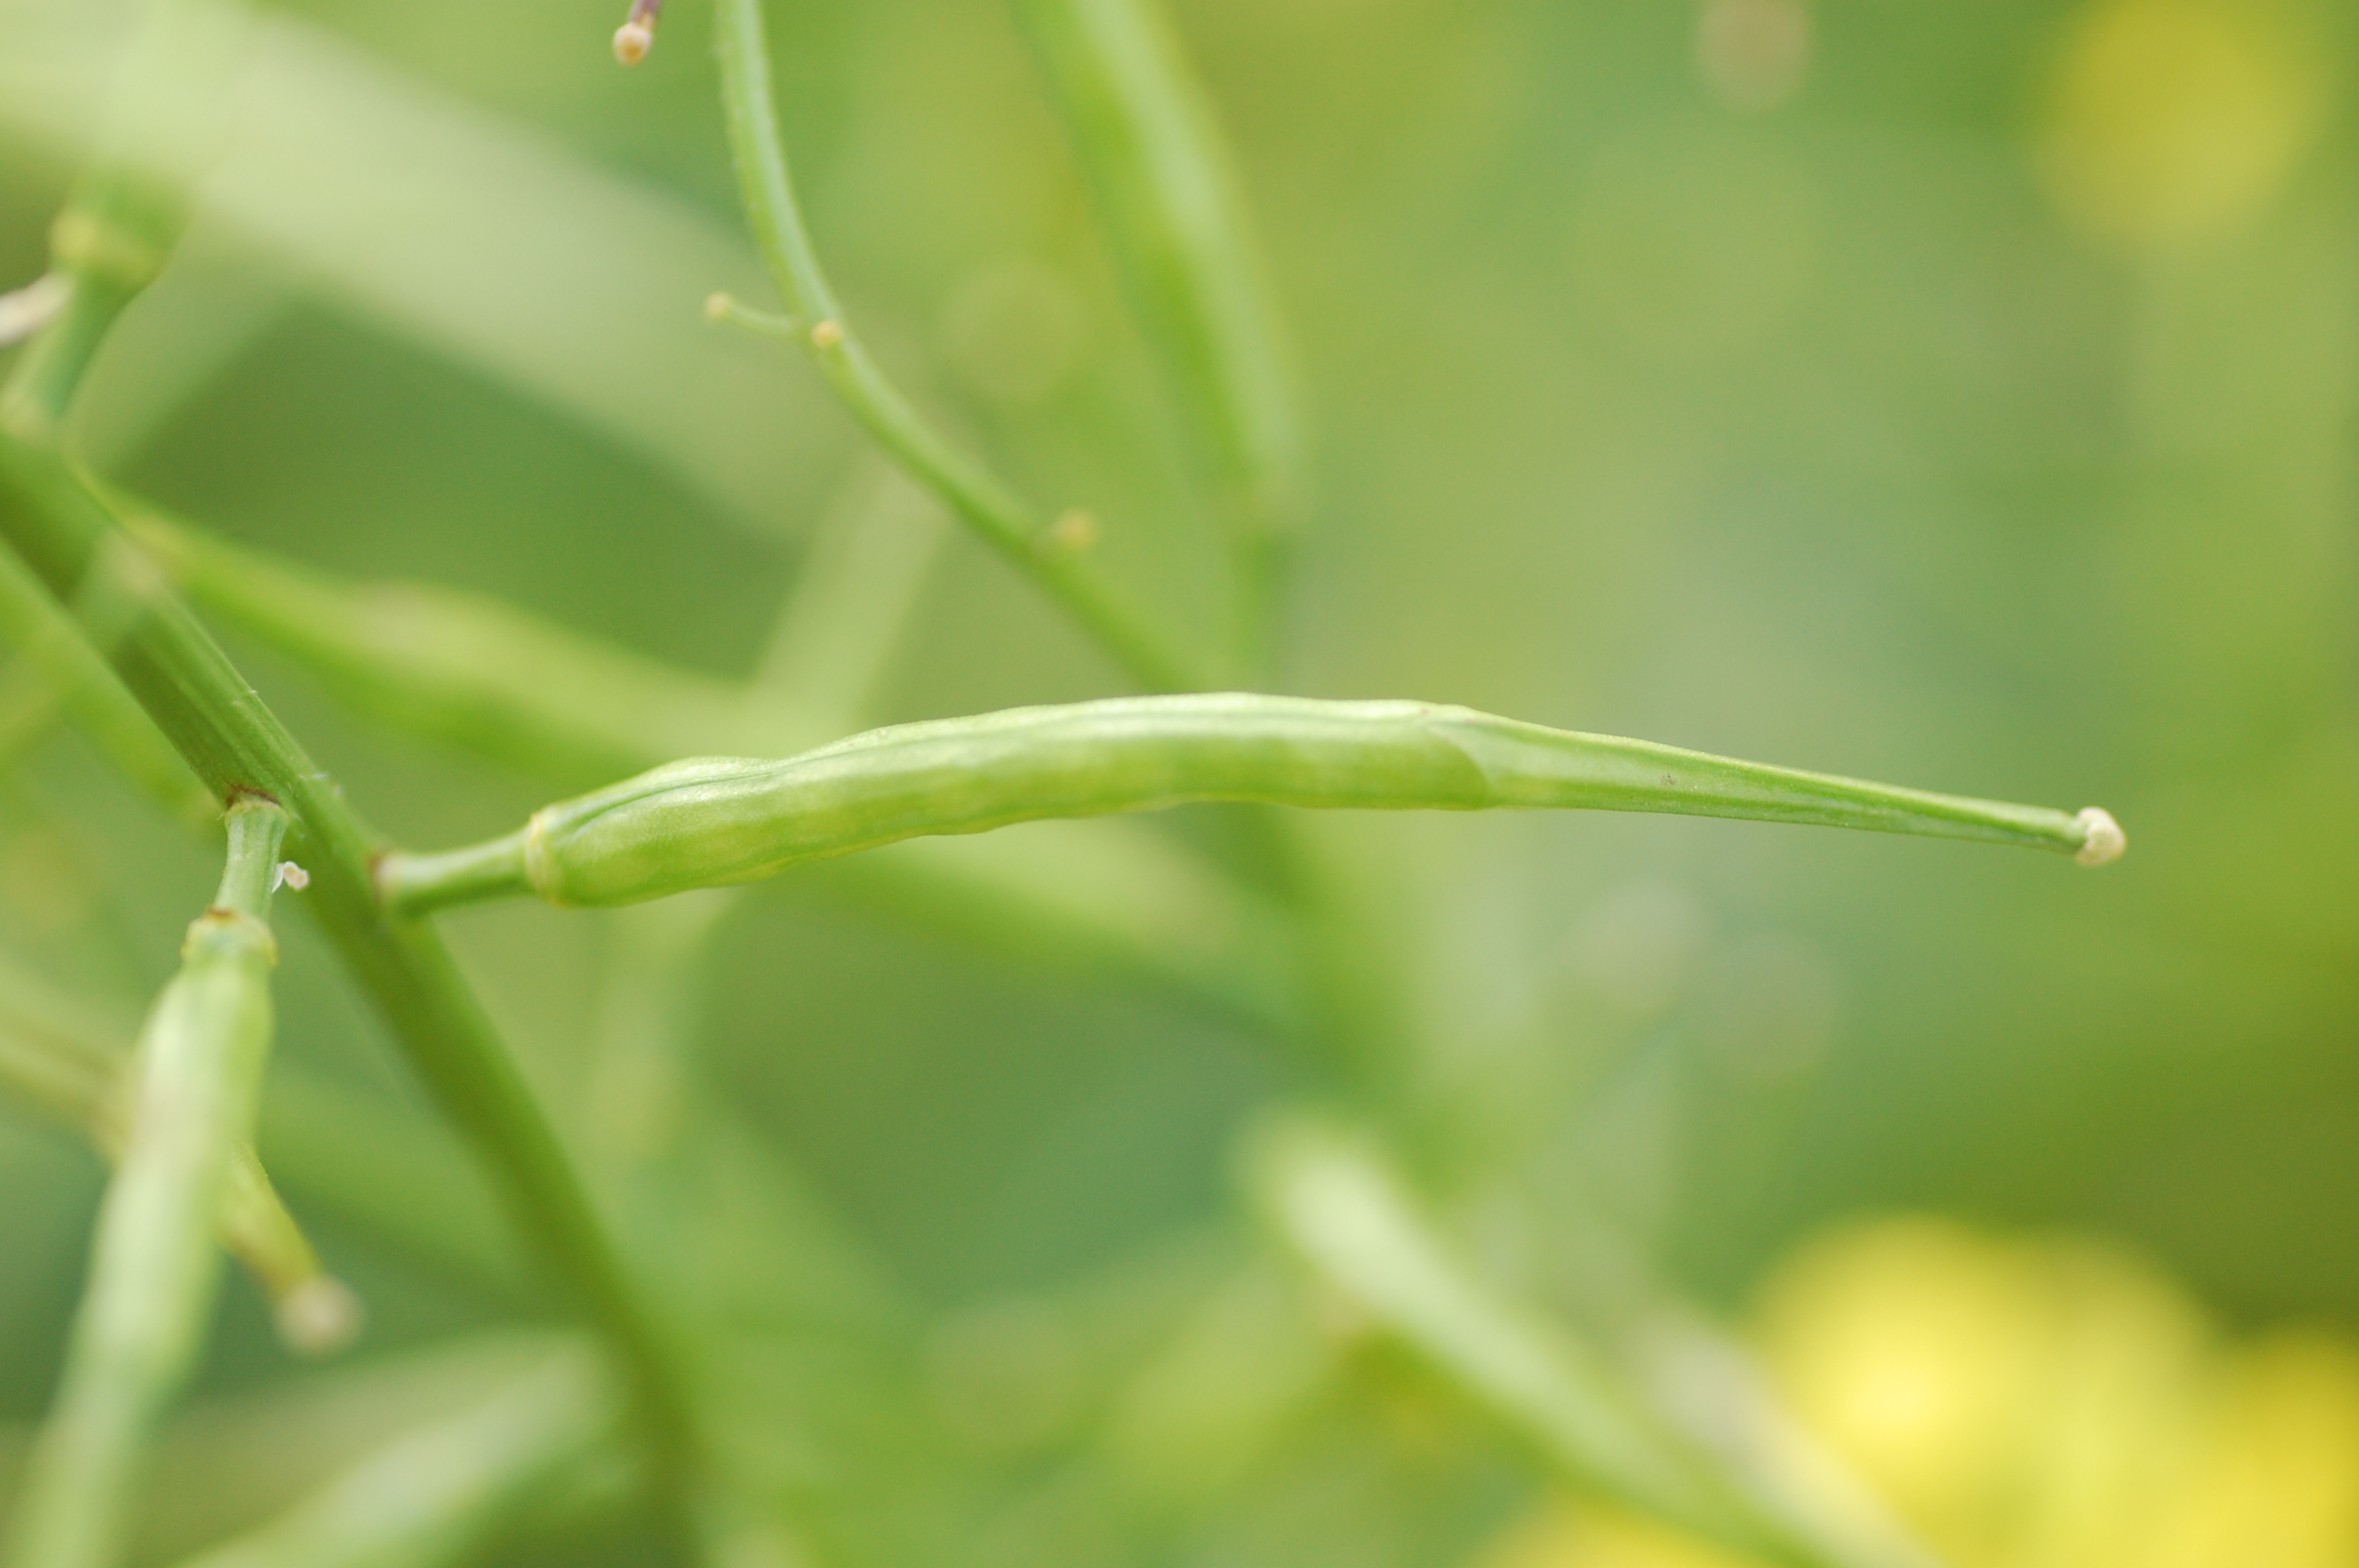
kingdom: Plantae
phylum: Tracheophyta
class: Magnoliopsida
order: Brassicales
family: Brassicaceae
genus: Sinapis
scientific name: Sinapis arvensis
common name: Charlock
